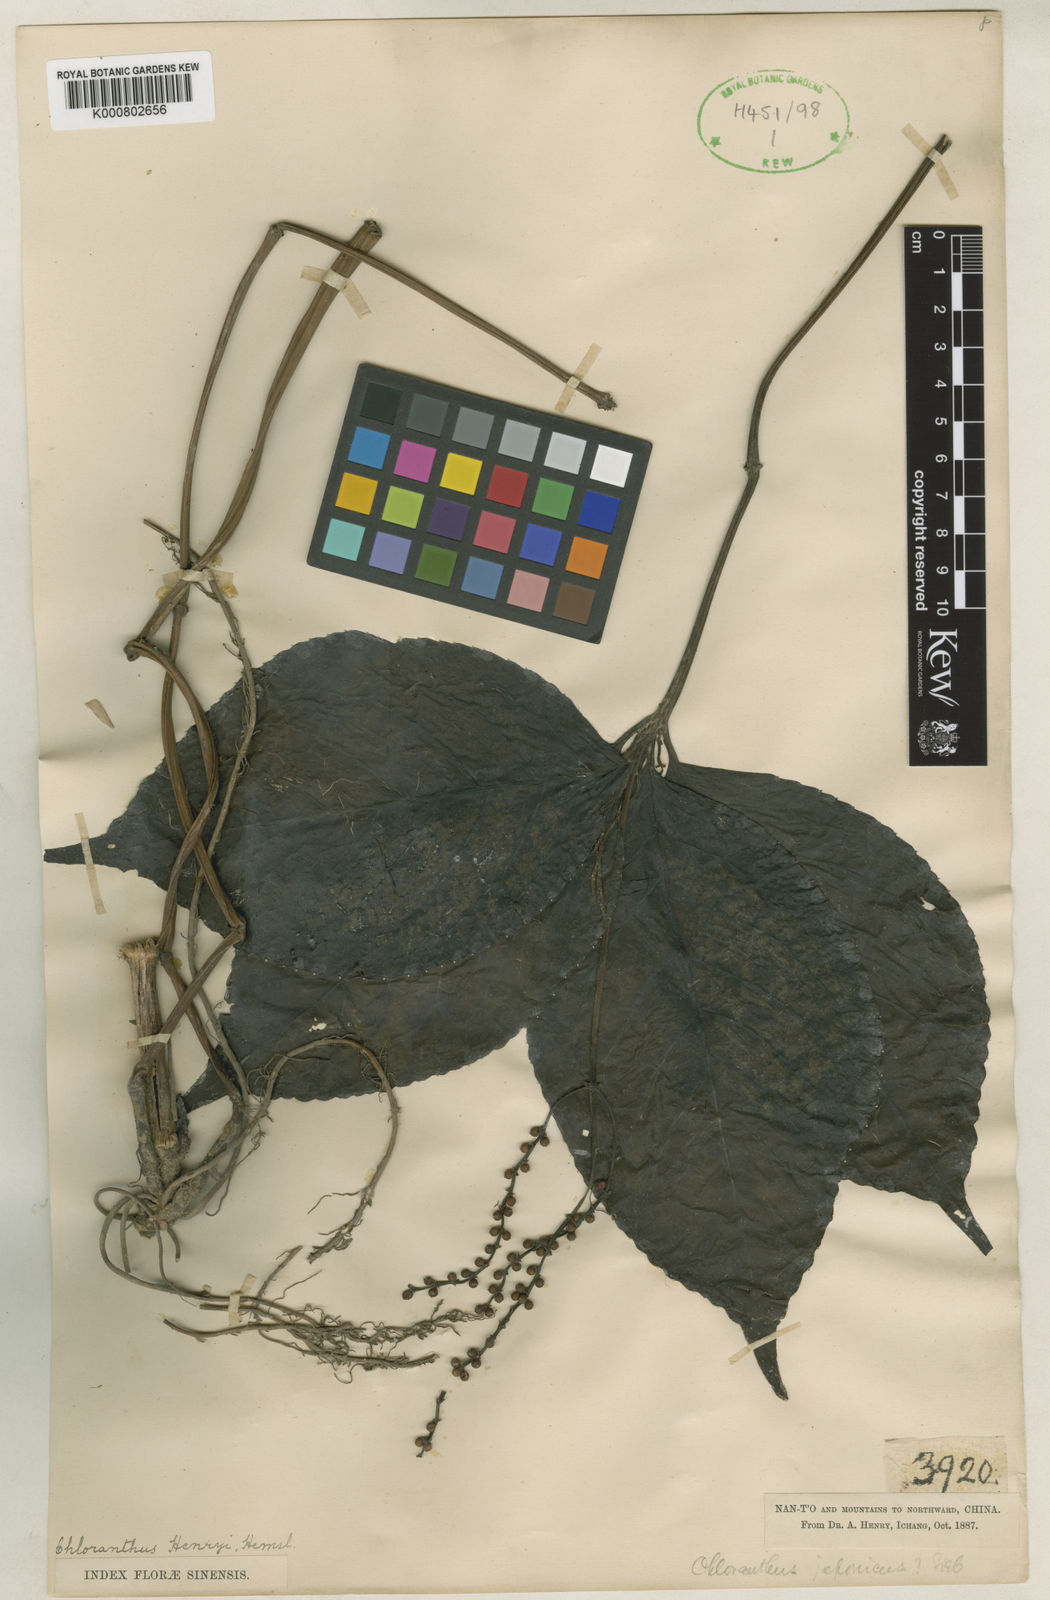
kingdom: Plantae
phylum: Tracheophyta
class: Magnoliopsida
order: Chloranthales
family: Chloranthaceae
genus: Chloranthus
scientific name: Chloranthus henryi
